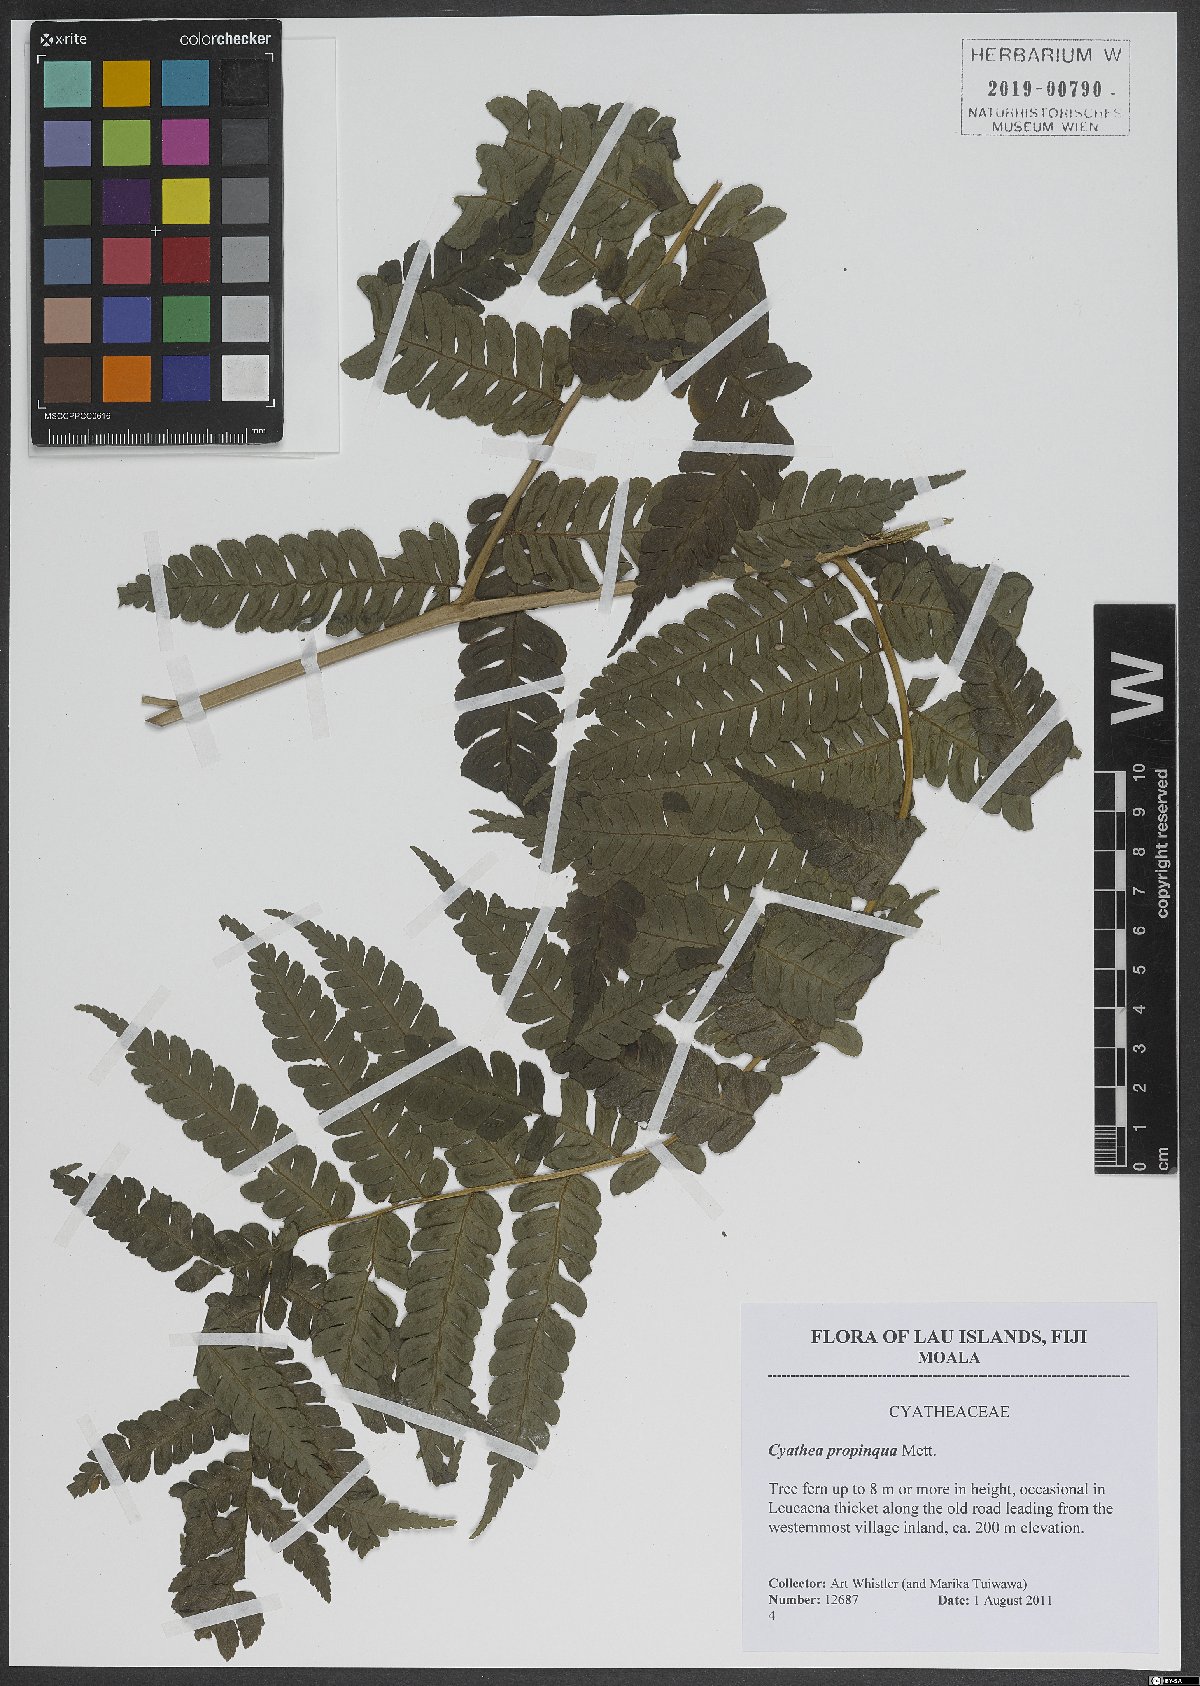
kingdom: Plantae
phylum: Tracheophyta
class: Polypodiopsida
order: Cyatheales
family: Cyatheaceae
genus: Sphaeropteris
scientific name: Sphaeropteris propinqua
